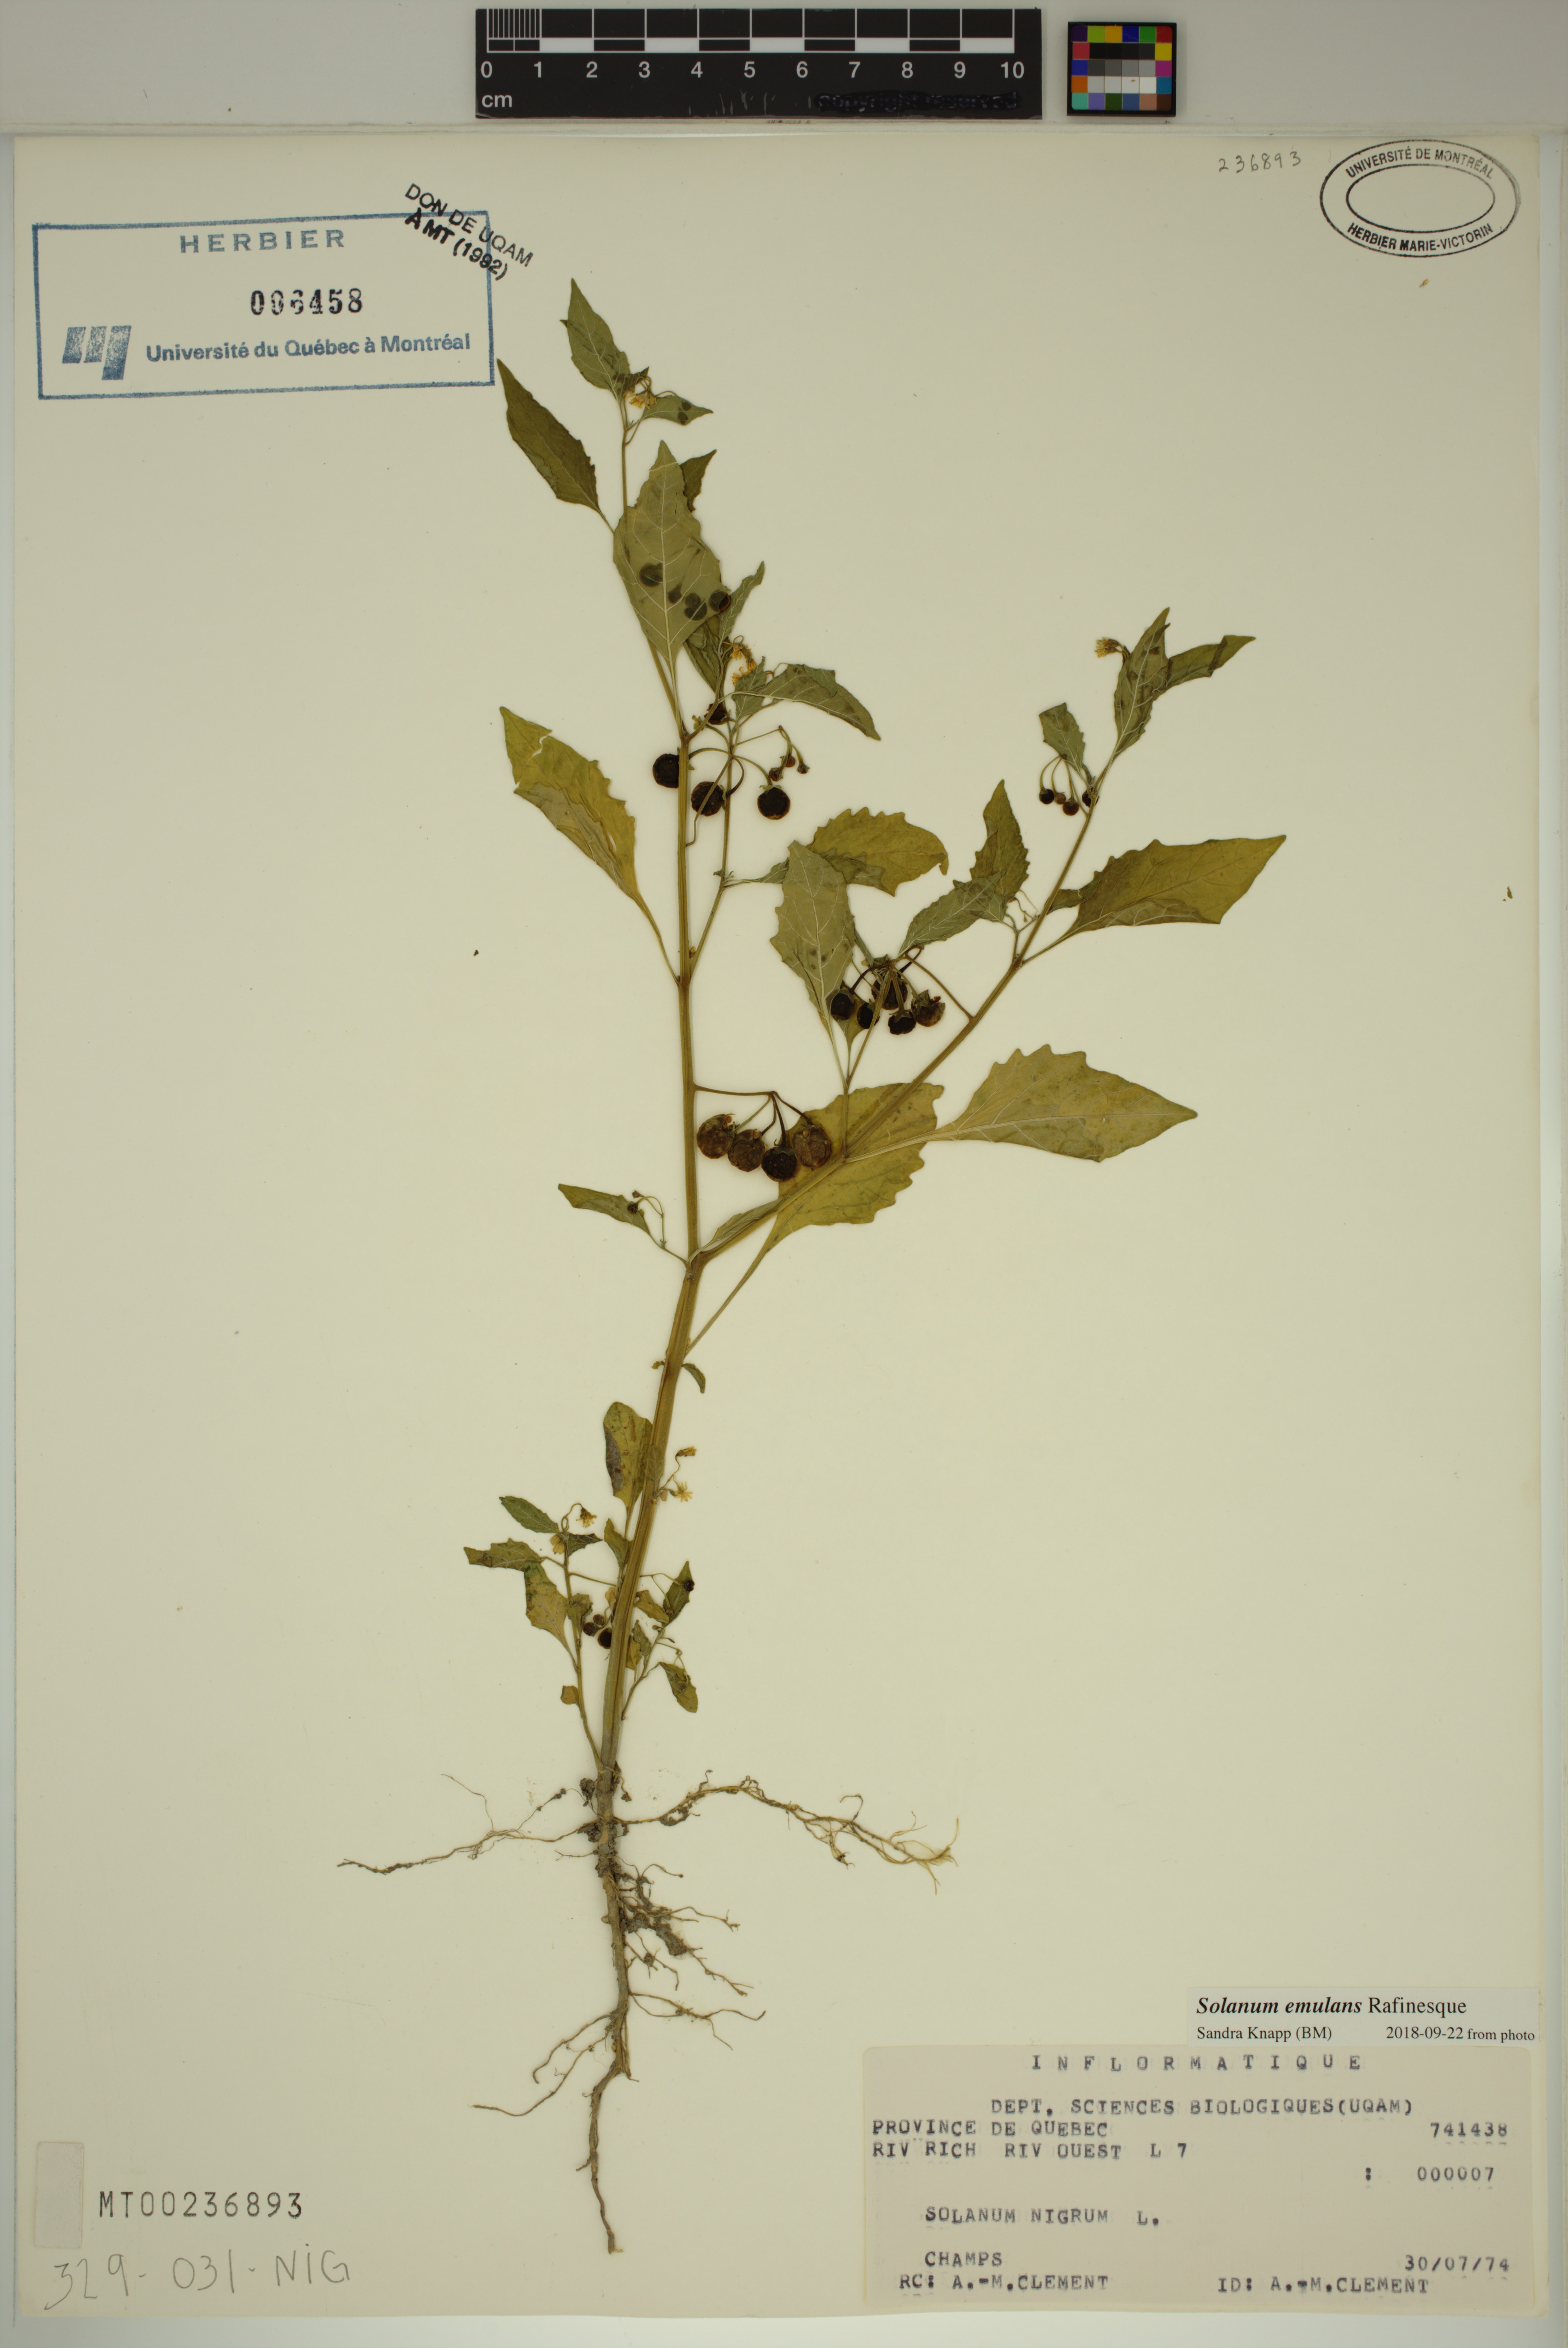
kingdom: Plantae
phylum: Tracheophyta
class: Magnoliopsida
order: Solanales
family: Solanaceae
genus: Solanum
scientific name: Solanum emulans
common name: Eastern black nightshade
